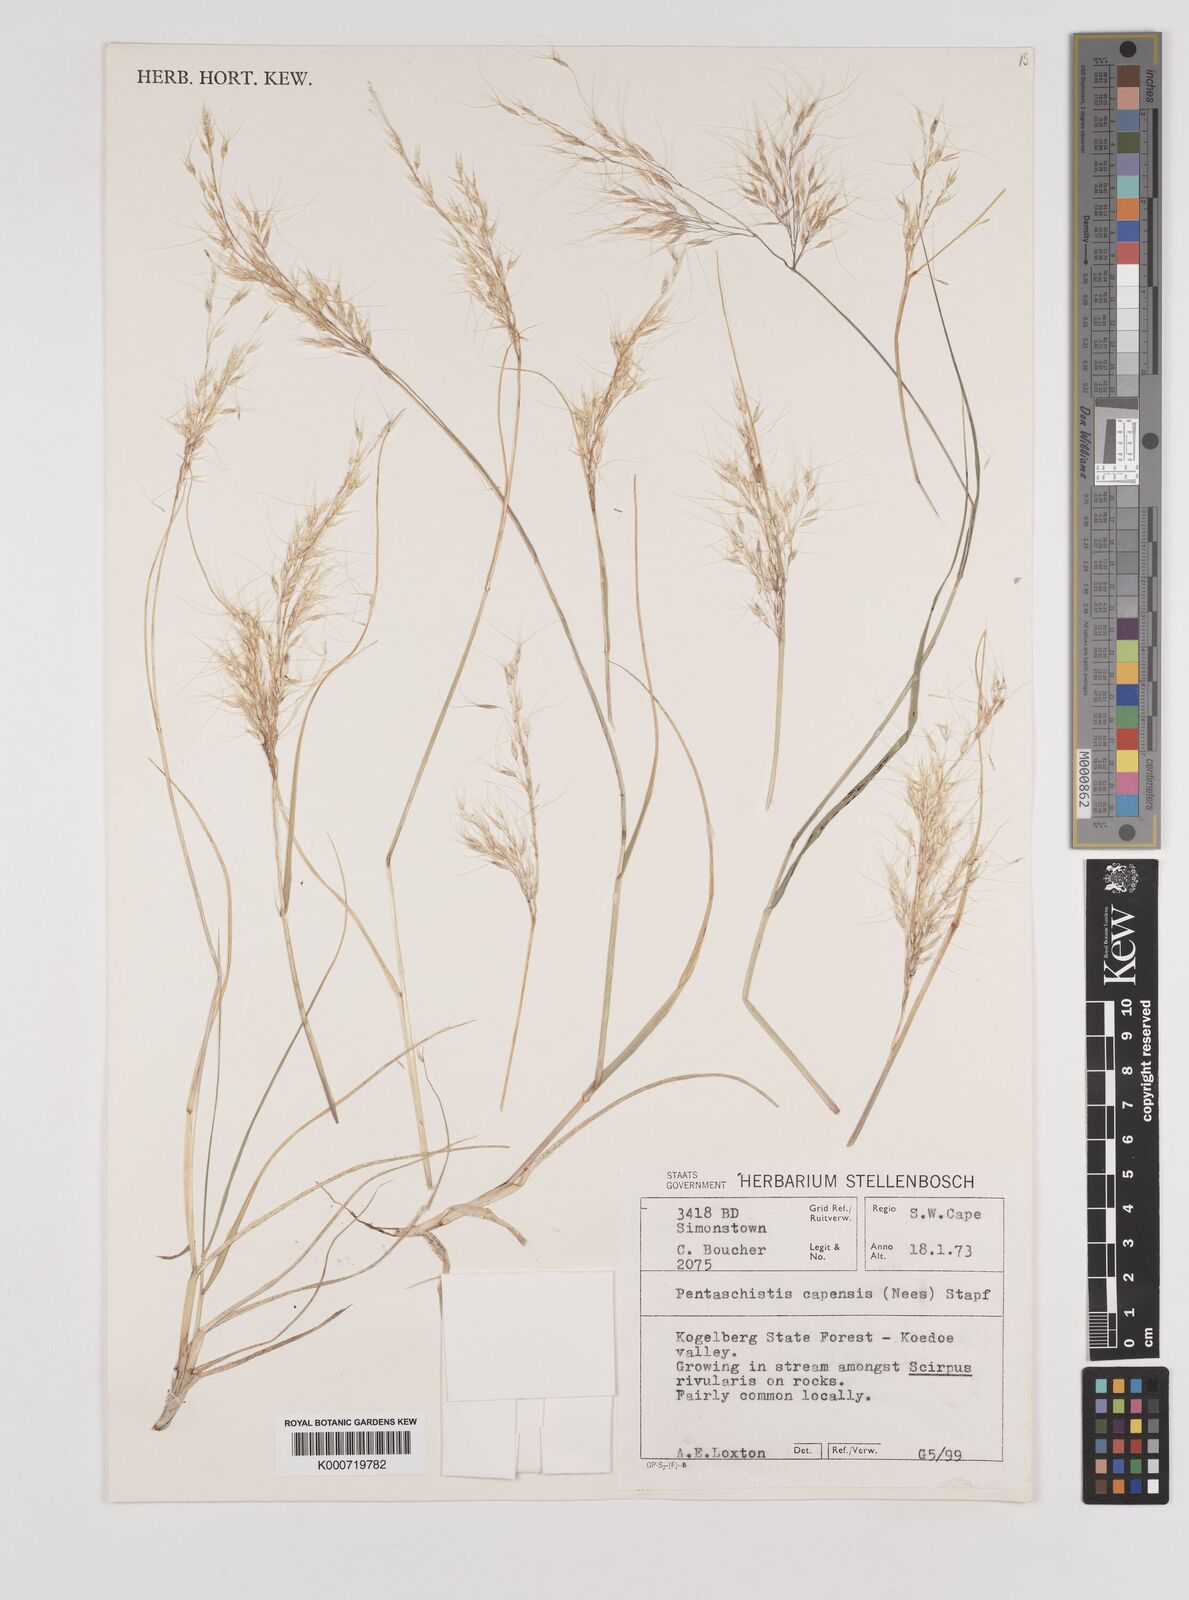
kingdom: Plantae
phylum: Tracheophyta
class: Liliopsida
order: Poales
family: Poaceae
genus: Pentameris
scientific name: Pentameris capensis
